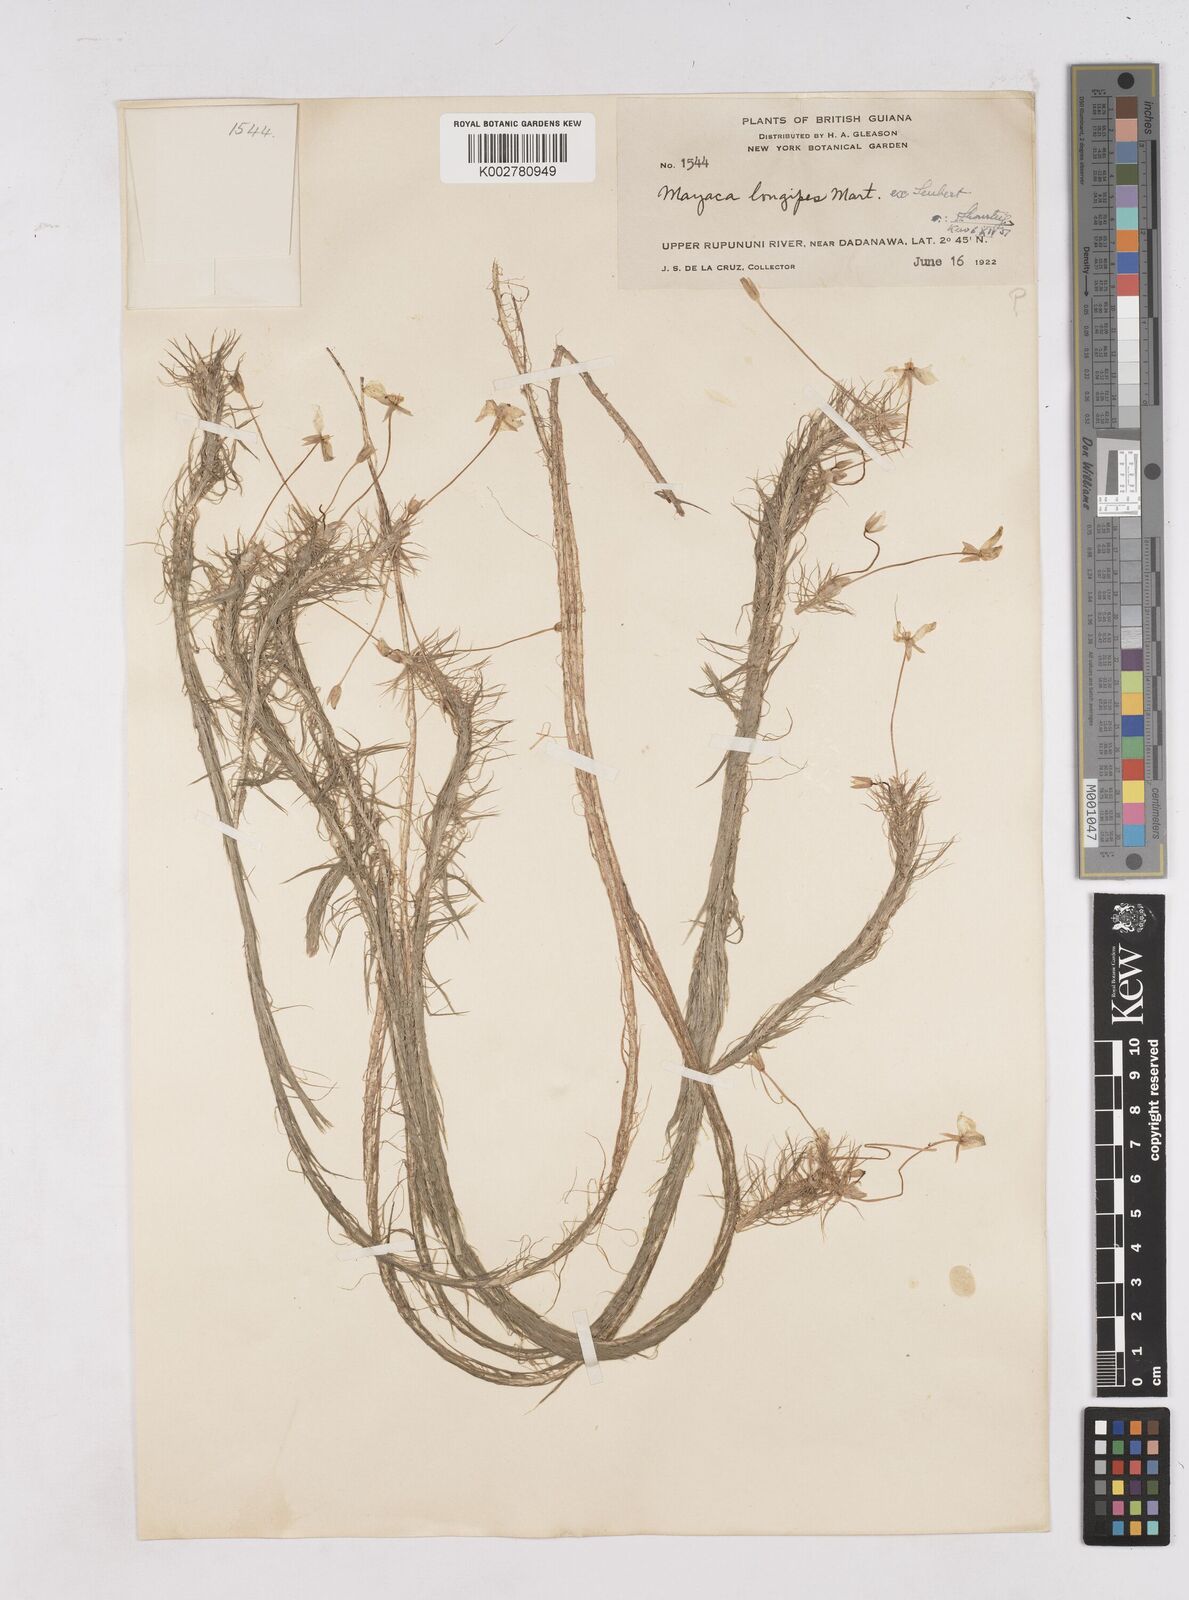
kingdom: Plantae
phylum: Tracheophyta
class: Liliopsida
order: Poales
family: Mayacaceae
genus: Mayaca
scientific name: Mayaca fluviatilis
